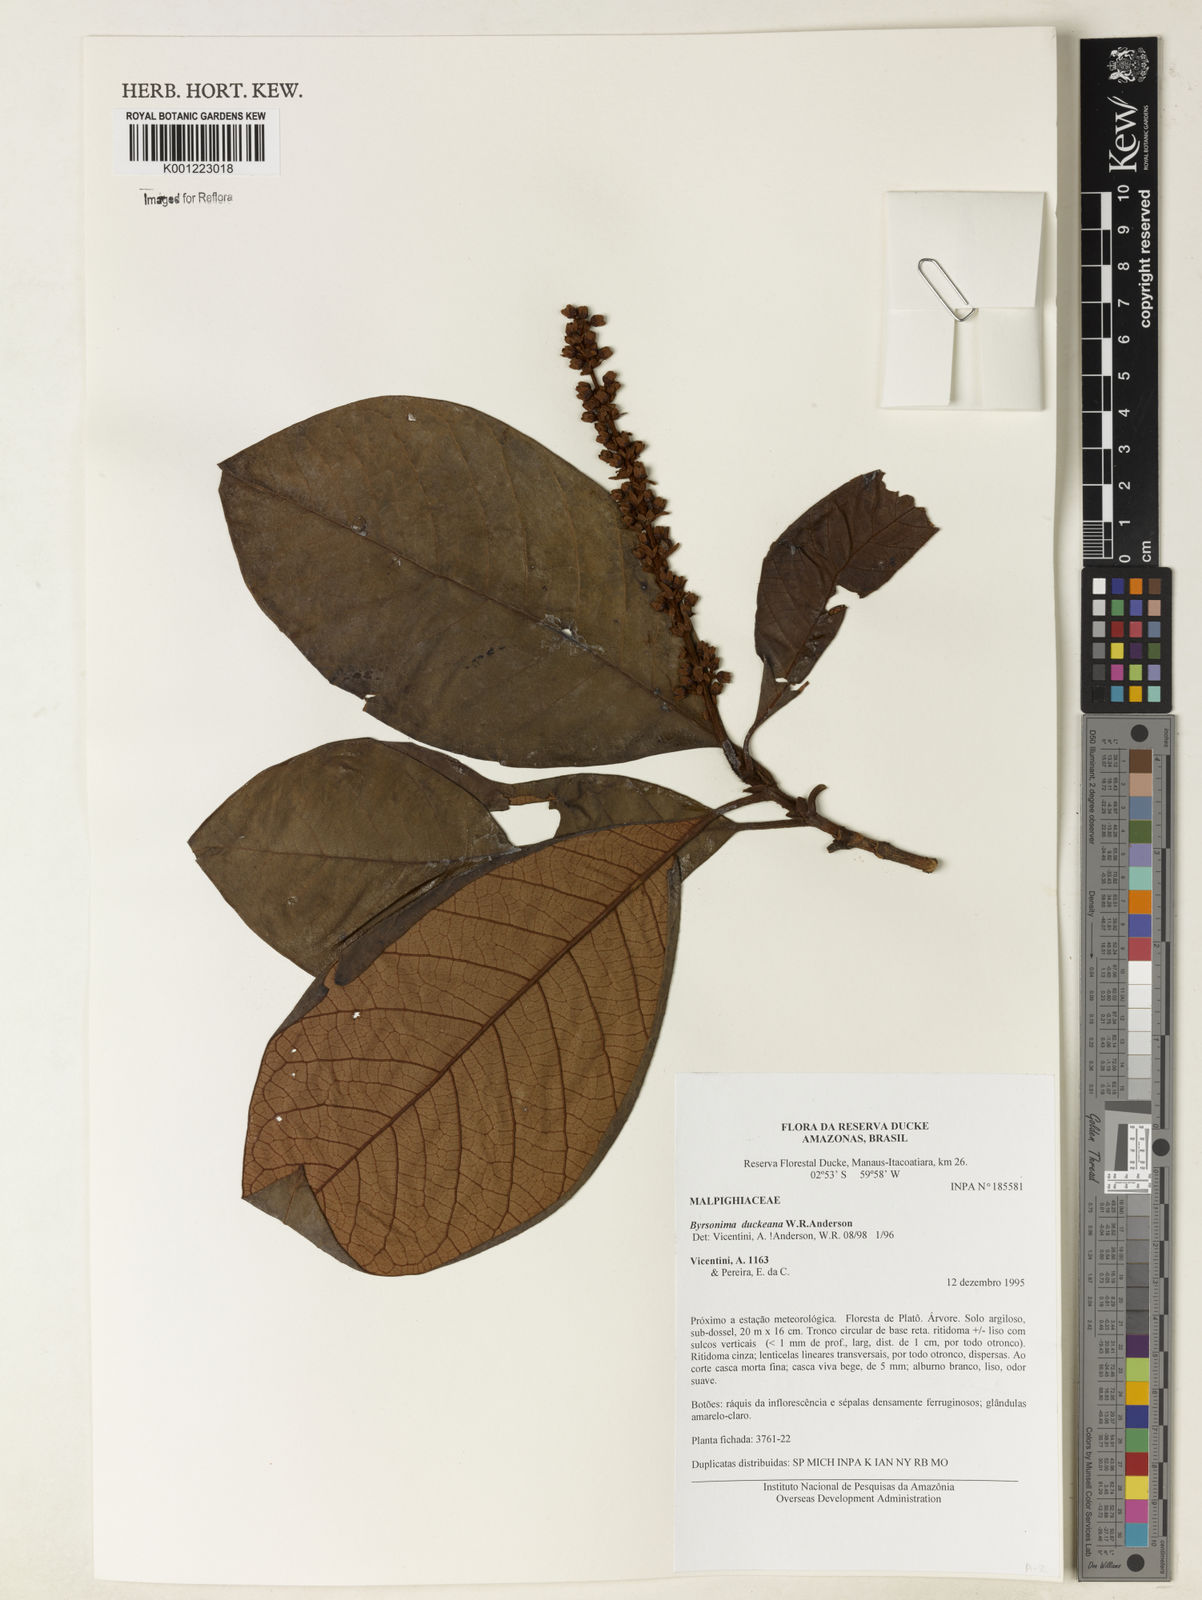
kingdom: Plantae
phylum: Tracheophyta
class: Magnoliopsida
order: Malpighiales
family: Malpighiaceae
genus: Byrsonima
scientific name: Byrsonima duckeana
